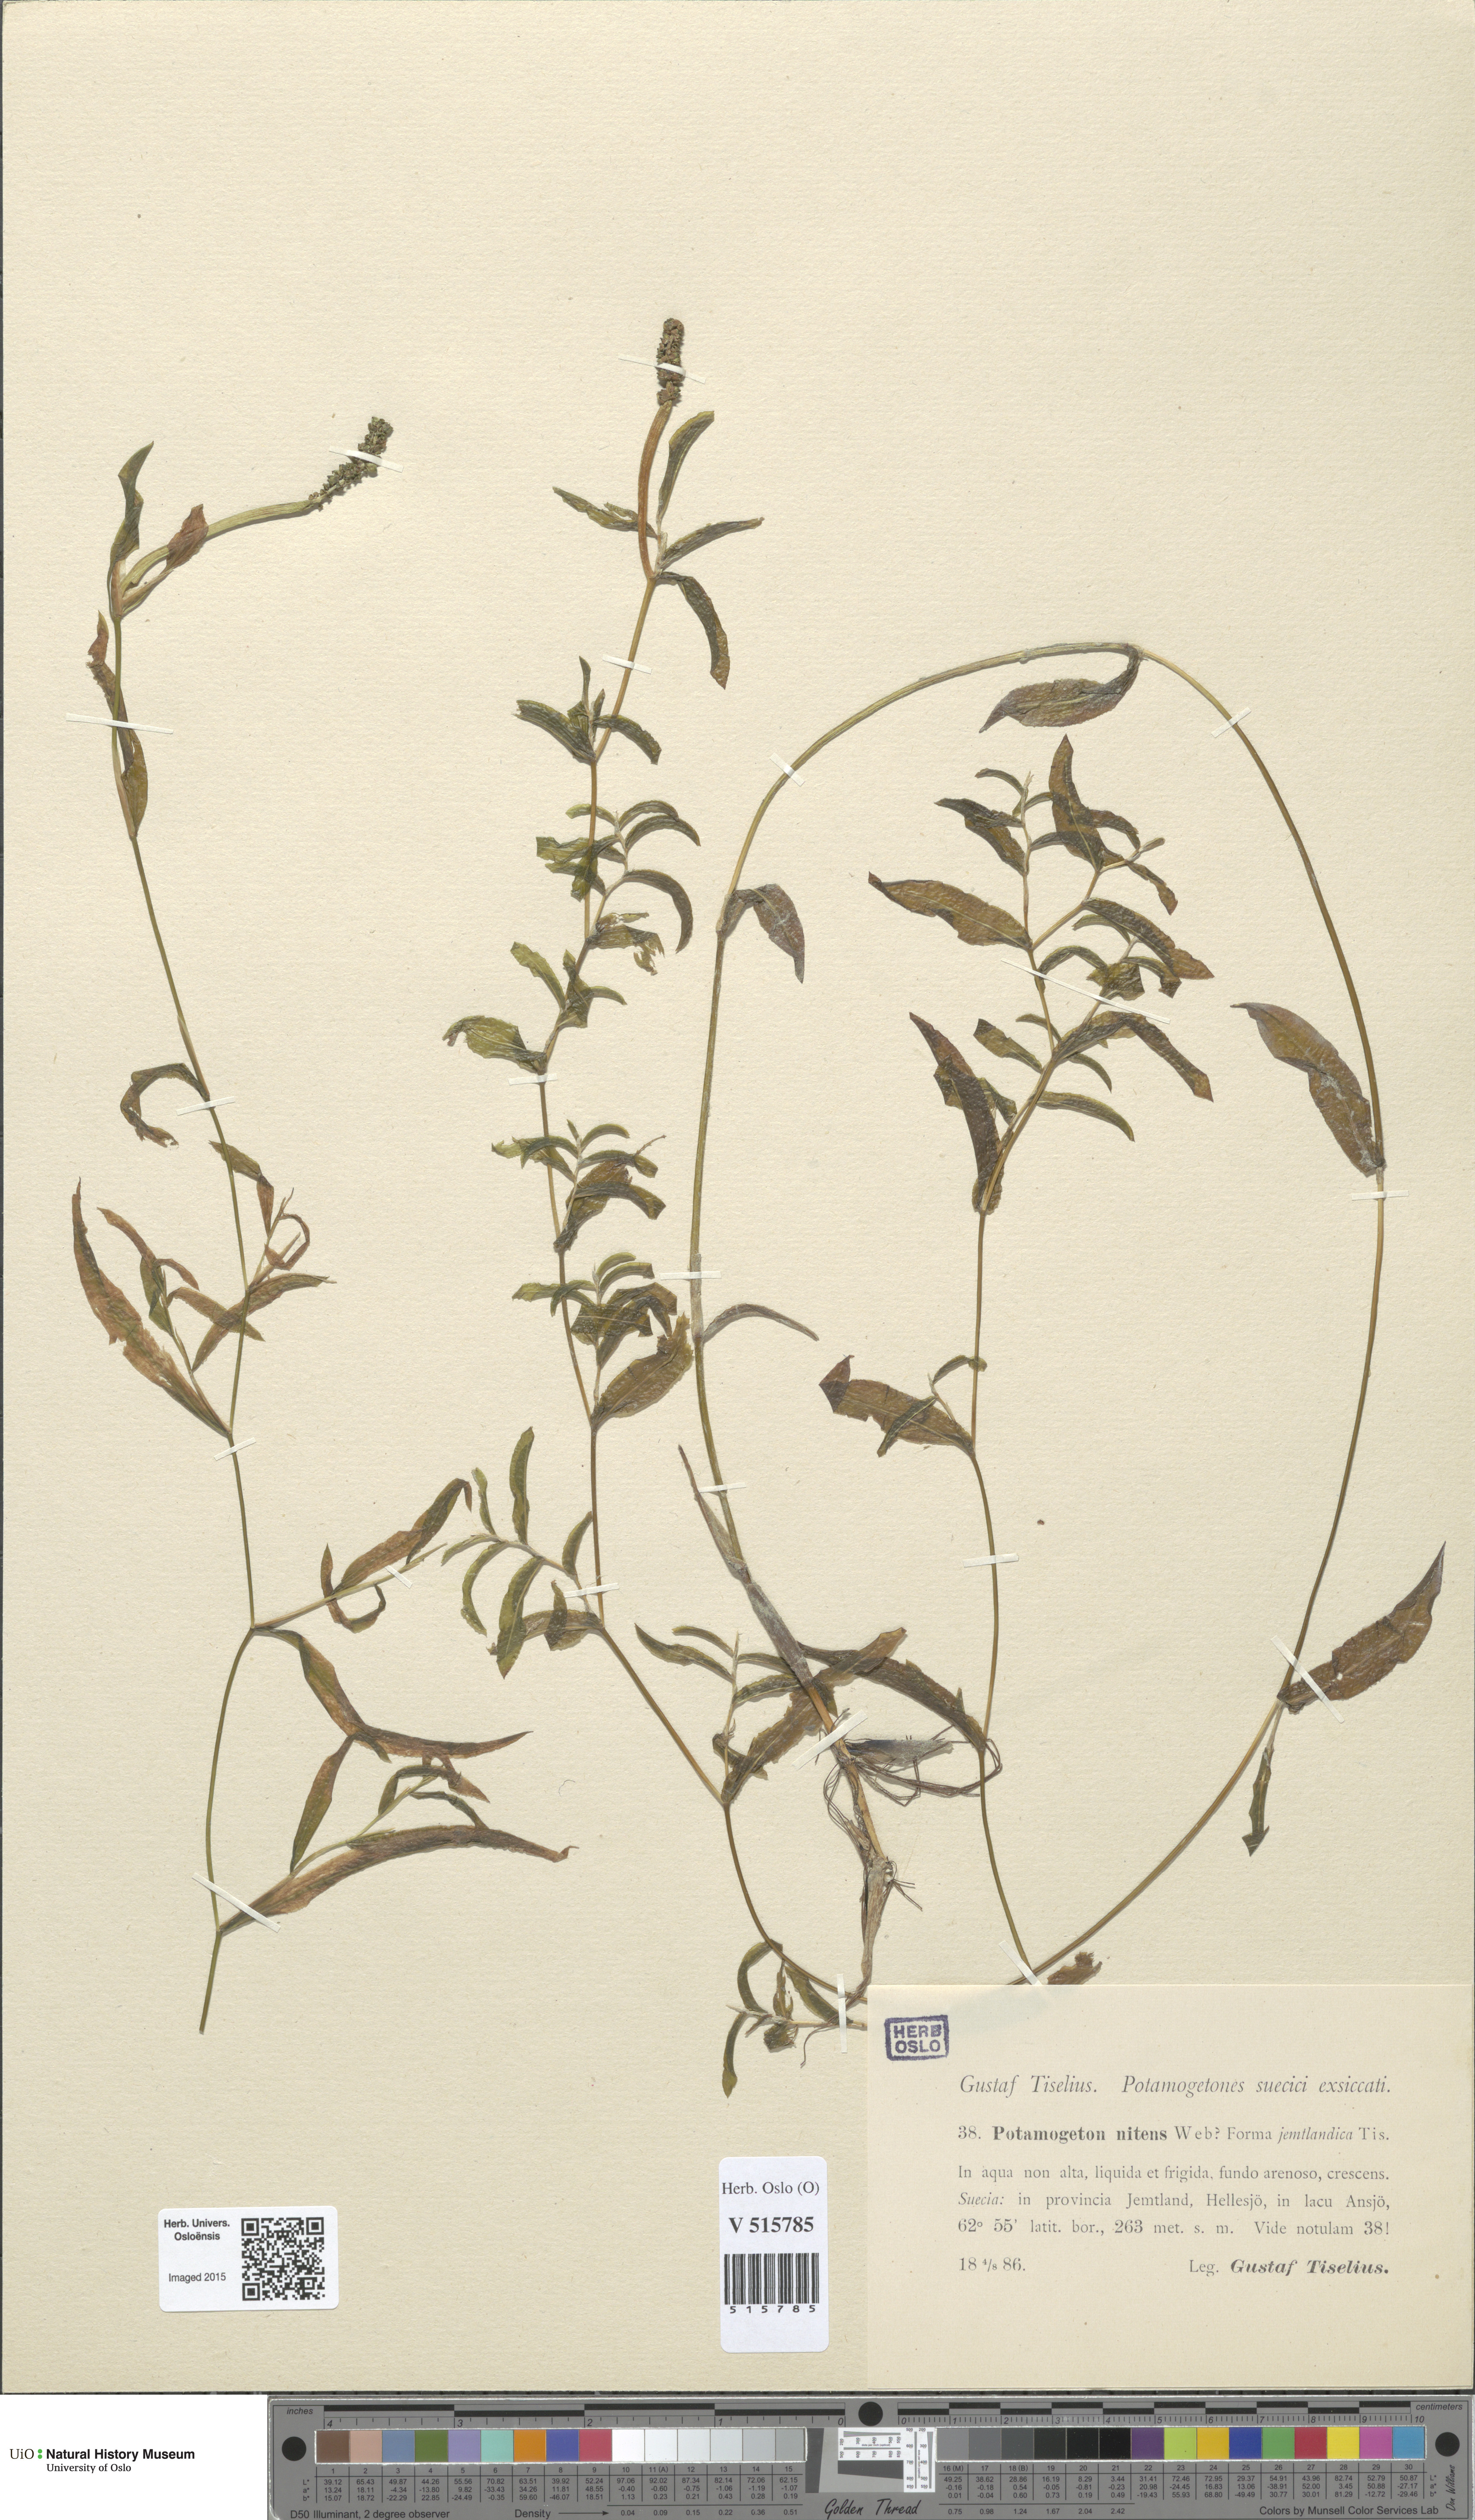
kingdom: Plantae
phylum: Tracheophyta
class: Liliopsida
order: Alismatales
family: Potamogetonaceae
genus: Potamogeton
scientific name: Potamogeton nitens
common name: Pondweed
